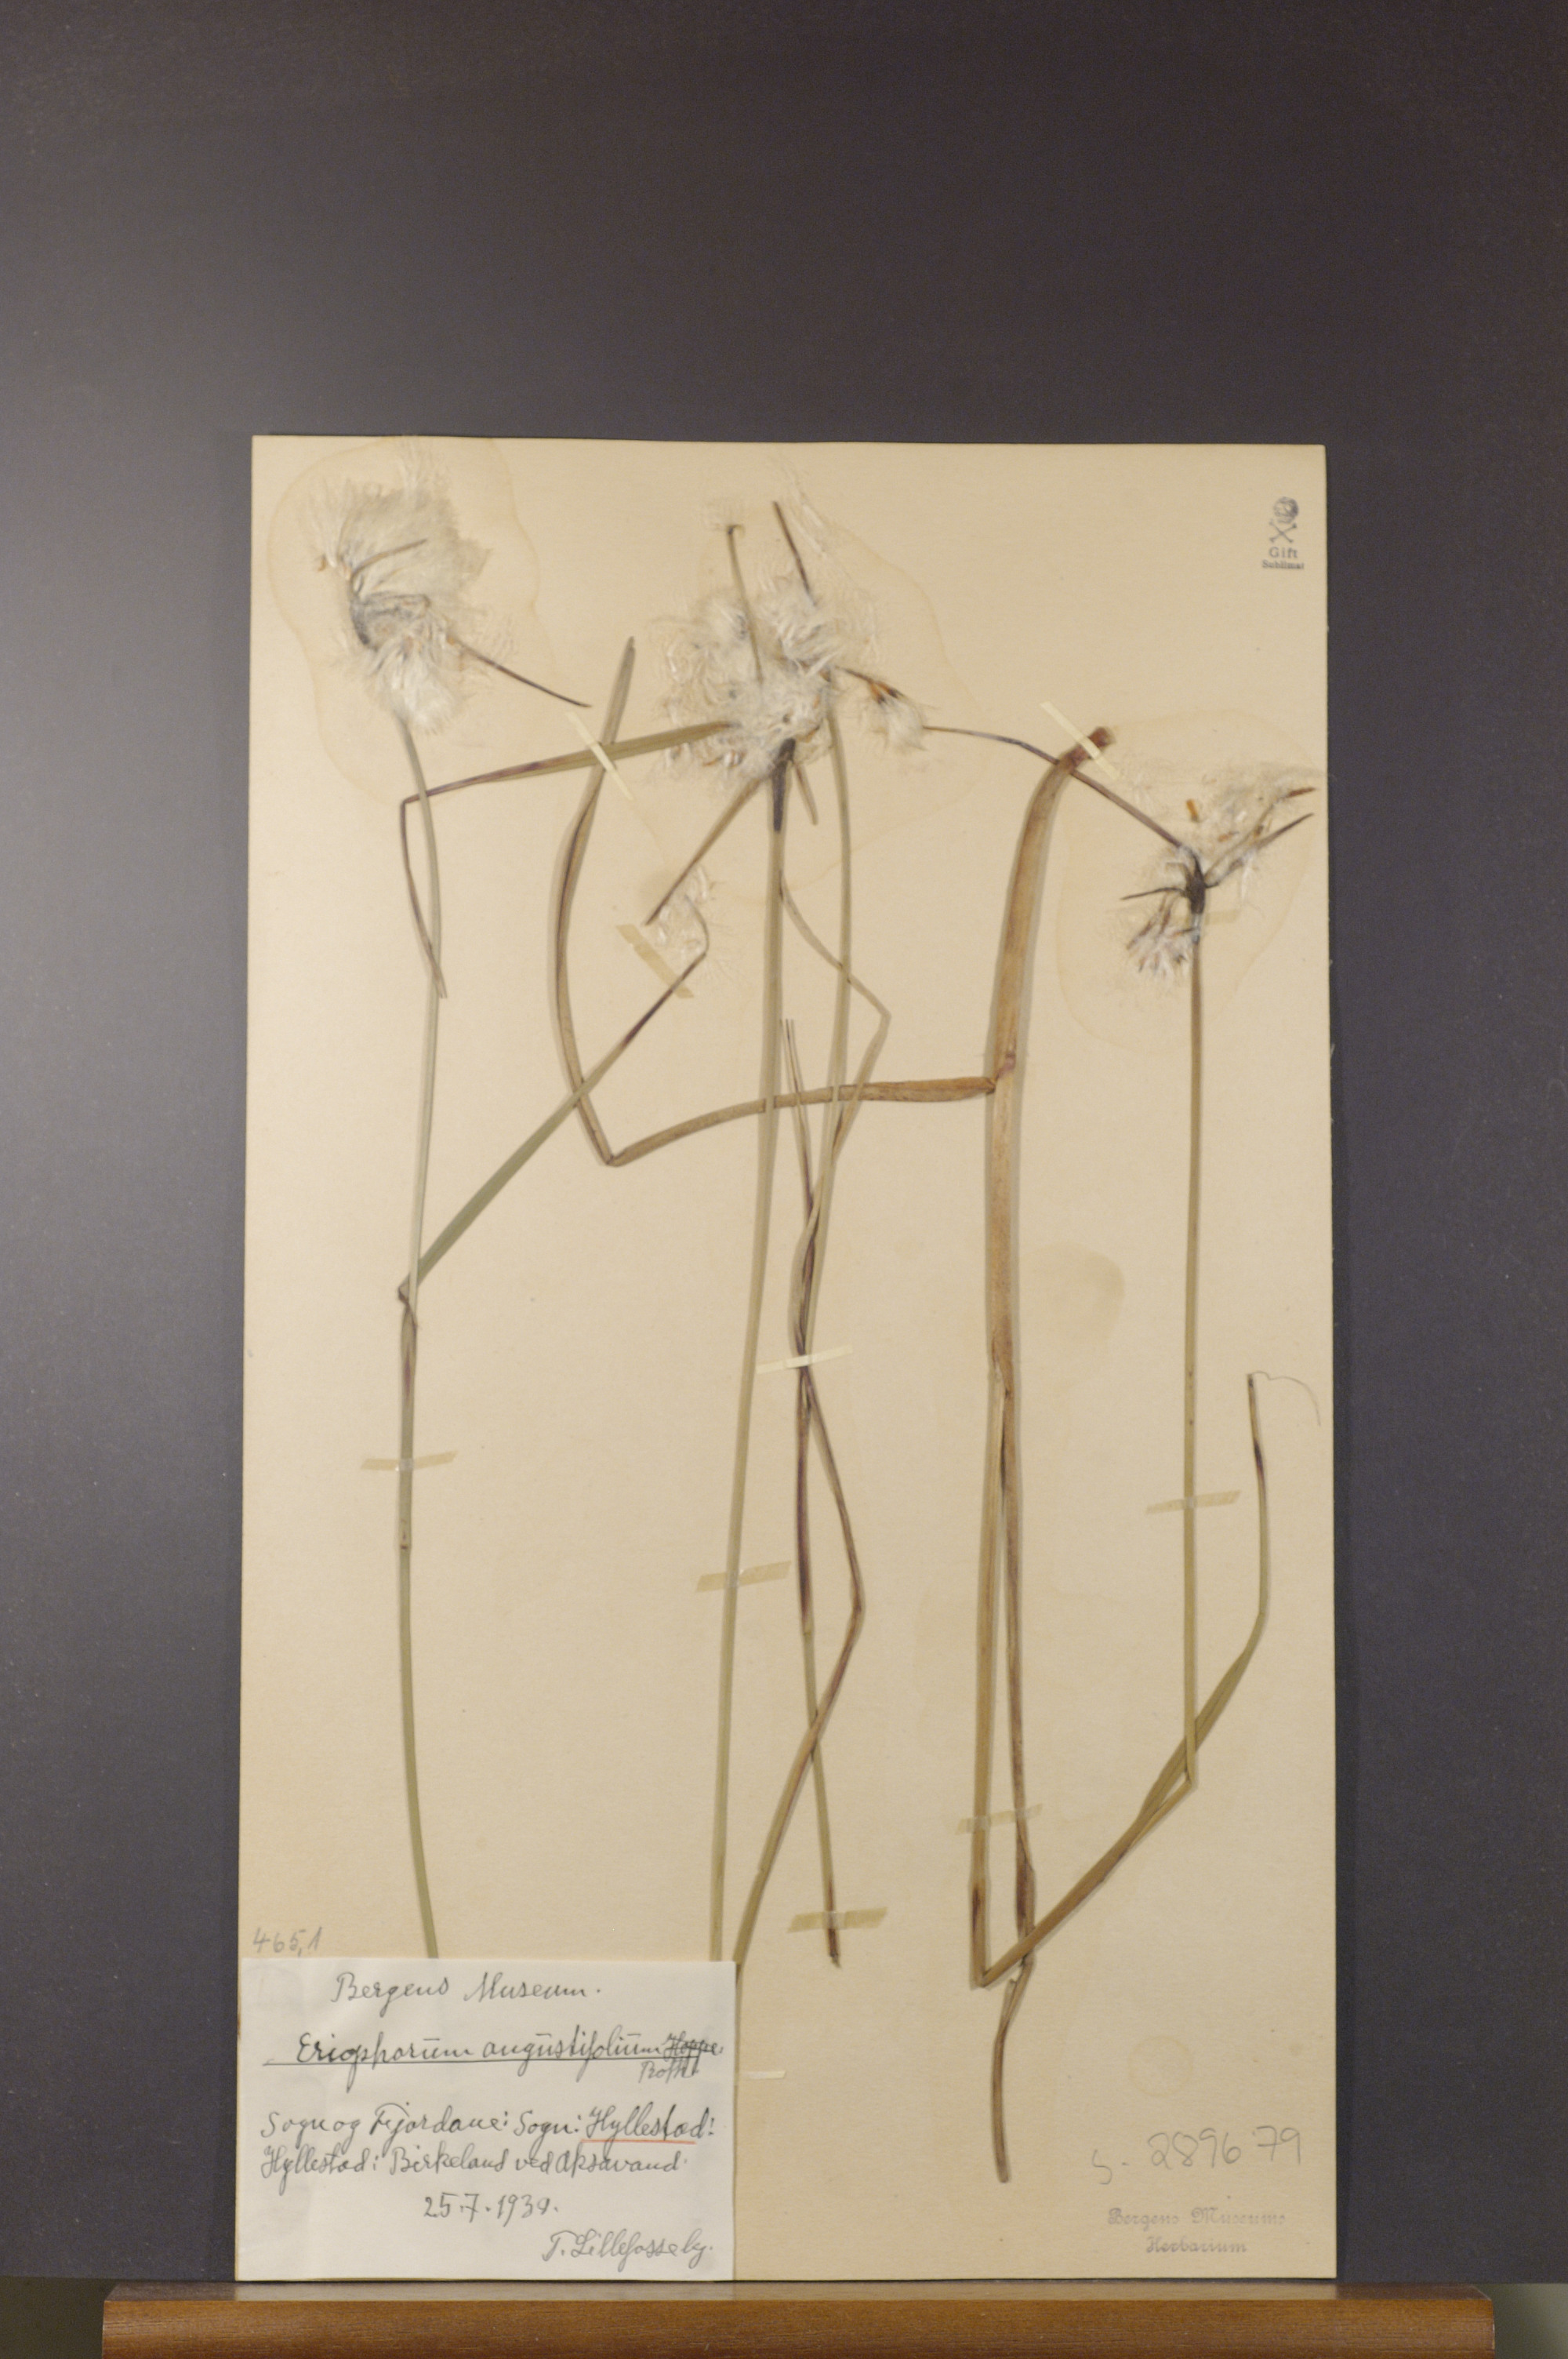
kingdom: Plantae
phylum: Tracheophyta
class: Liliopsida
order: Poales
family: Cyperaceae
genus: Eriophorum
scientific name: Eriophorum angustifolium
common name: Common cottongrass
